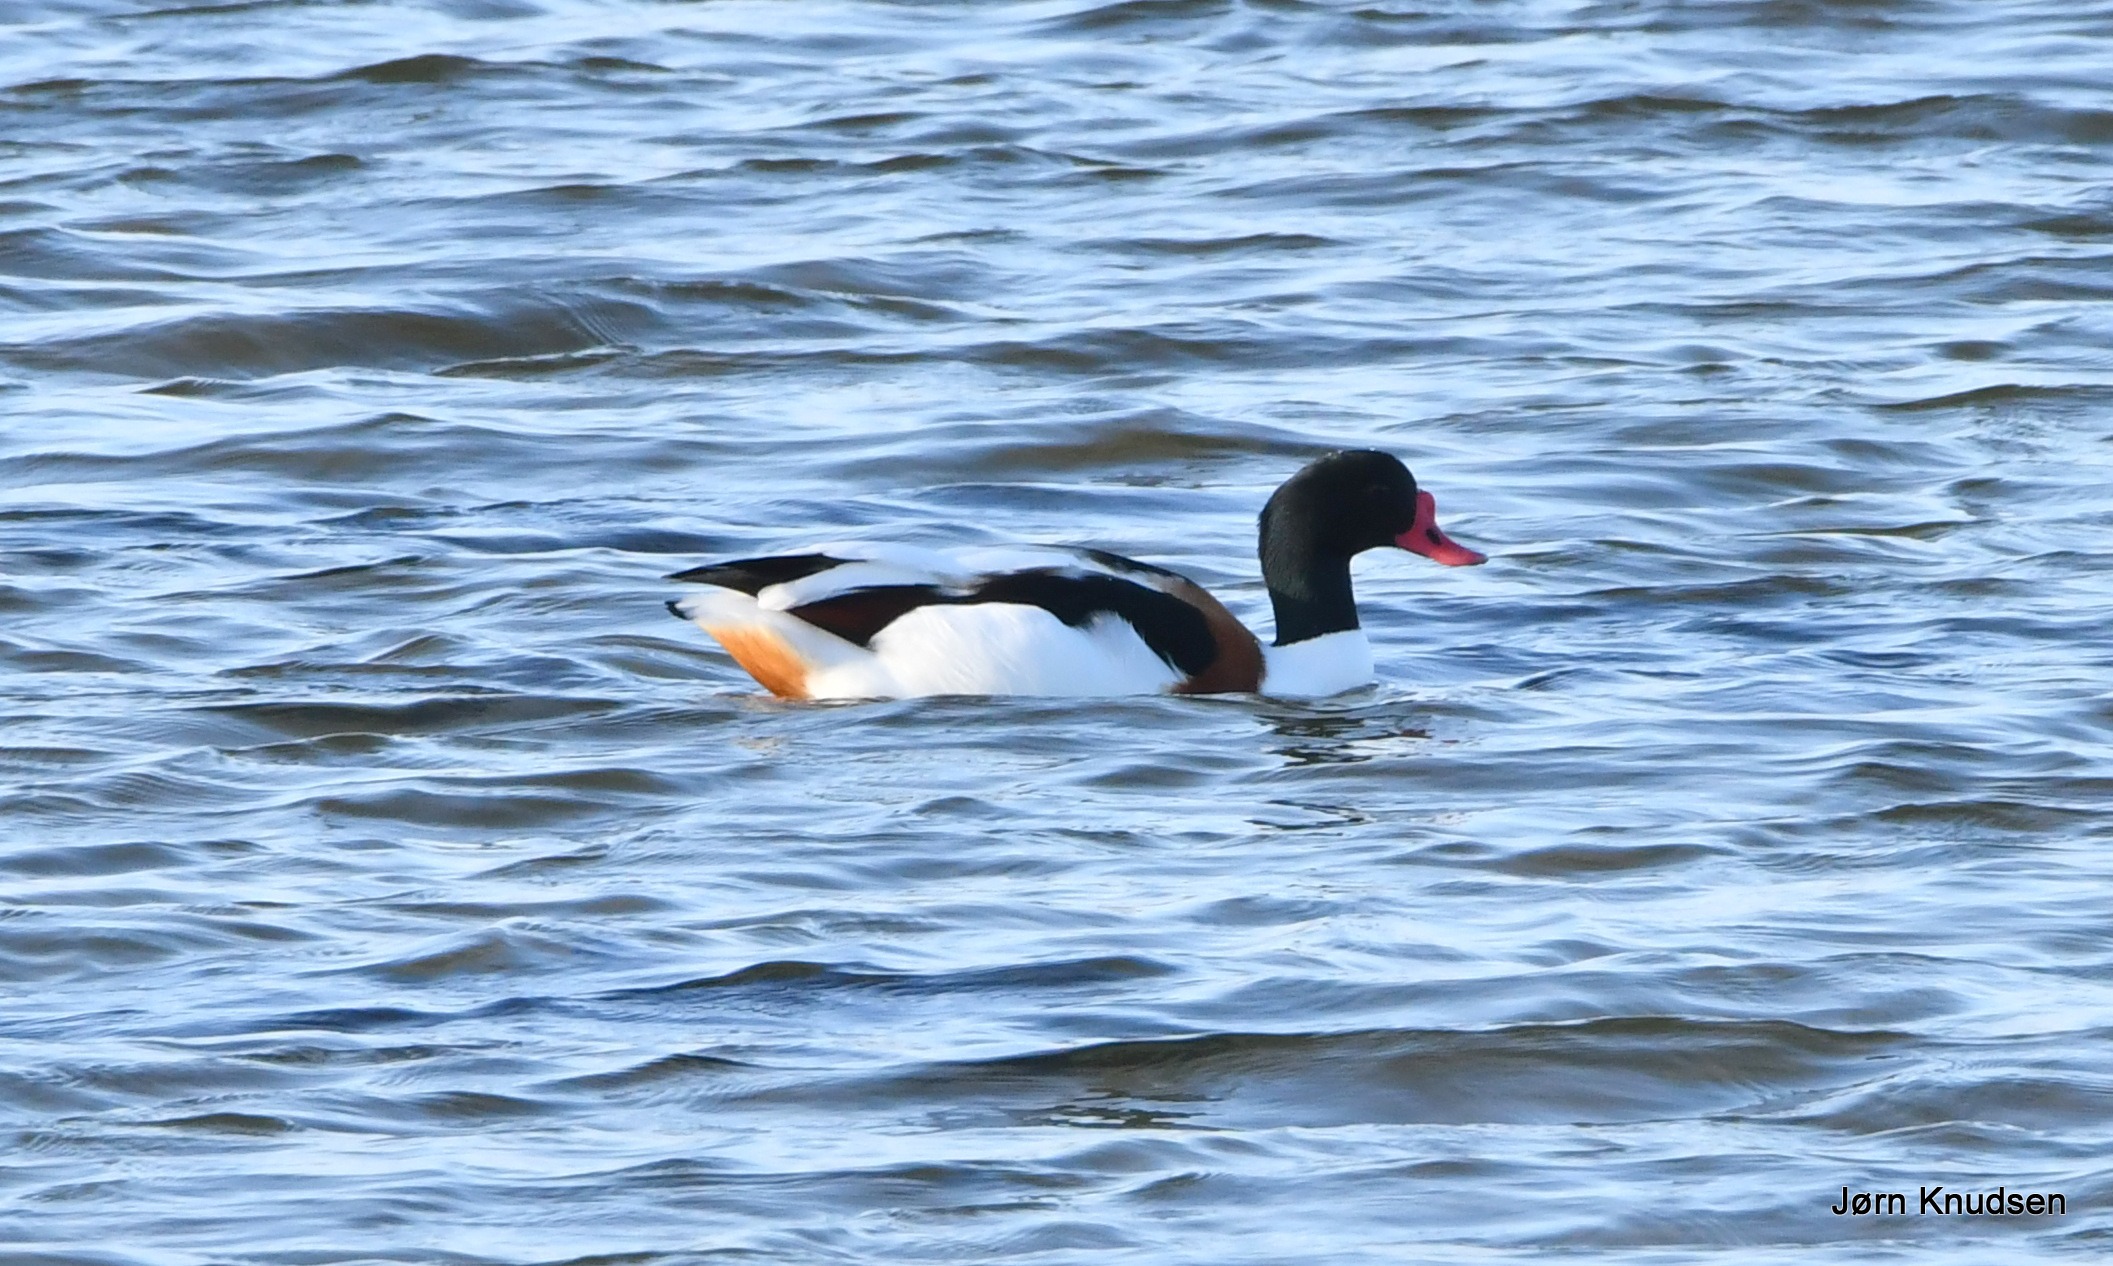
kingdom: Animalia
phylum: Chordata
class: Aves
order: Anseriformes
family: Anatidae
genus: Tadorna
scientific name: Tadorna tadorna
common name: Gravand
